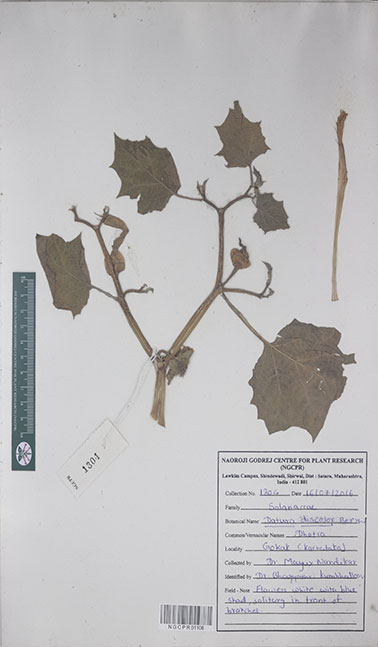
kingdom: Plantae
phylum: Tracheophyta
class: Magnoliopsida
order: Solanales
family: Solanaceae
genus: Datura
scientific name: Datura discolor
